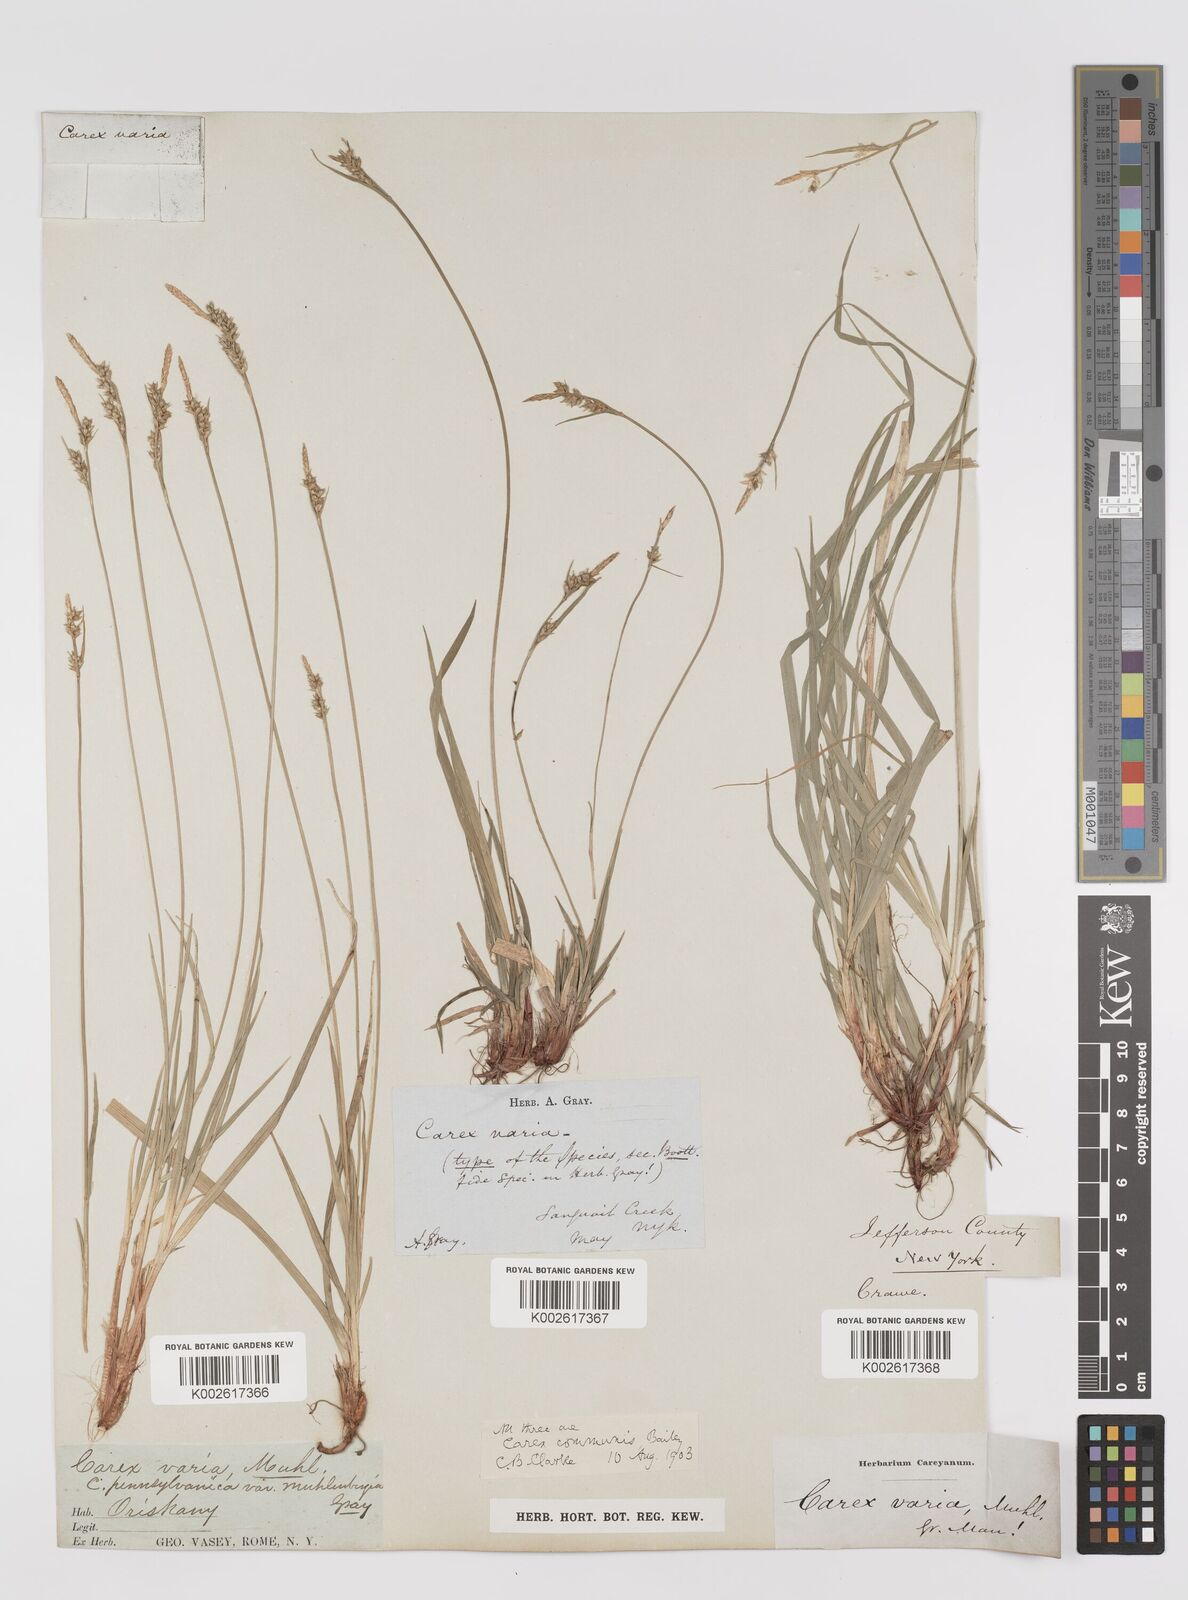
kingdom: Plantae
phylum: Tracheophyta
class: Liliopsida
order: Poales
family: Cyperaceae
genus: Carex
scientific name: Carex communis
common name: Colonial oak sedge
